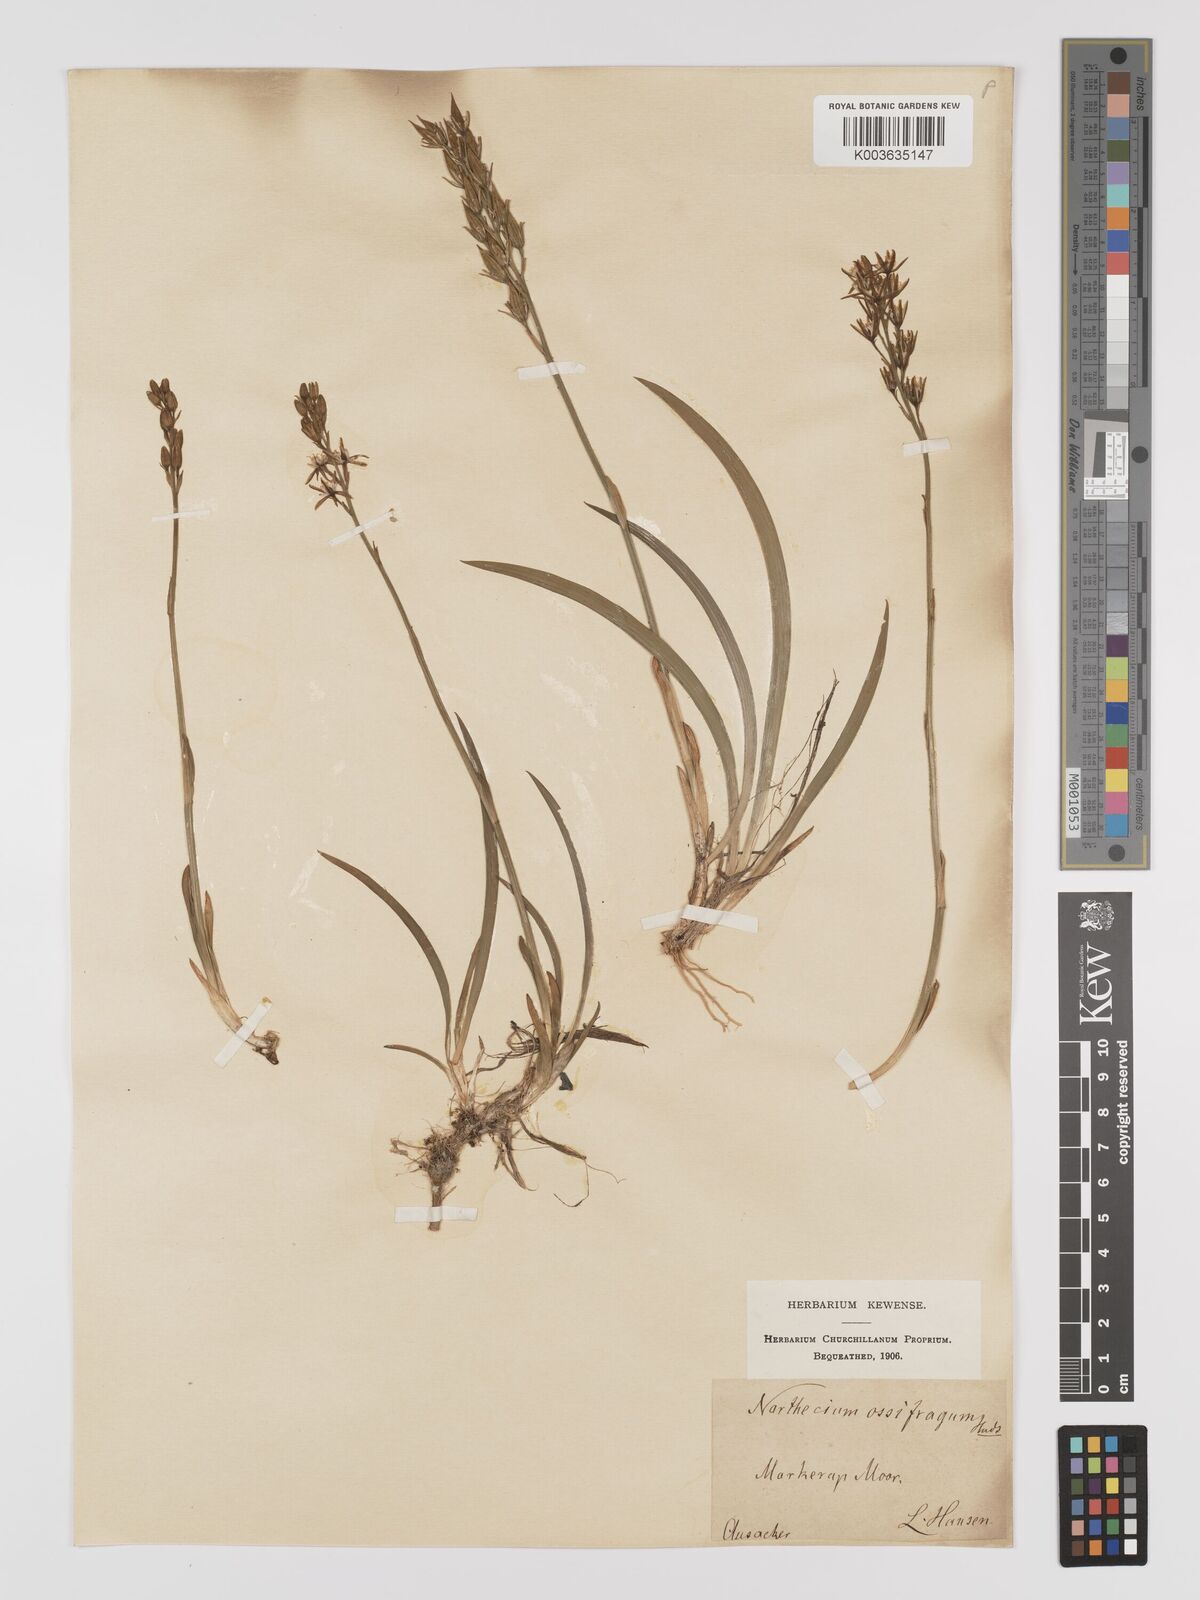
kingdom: Plantae
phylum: Tracheophyta
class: Liliopsida
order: Dioscoreales
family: Nartheciaceae
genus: Narthecium
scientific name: Narthecium ossifragum
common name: Bog asphodel
